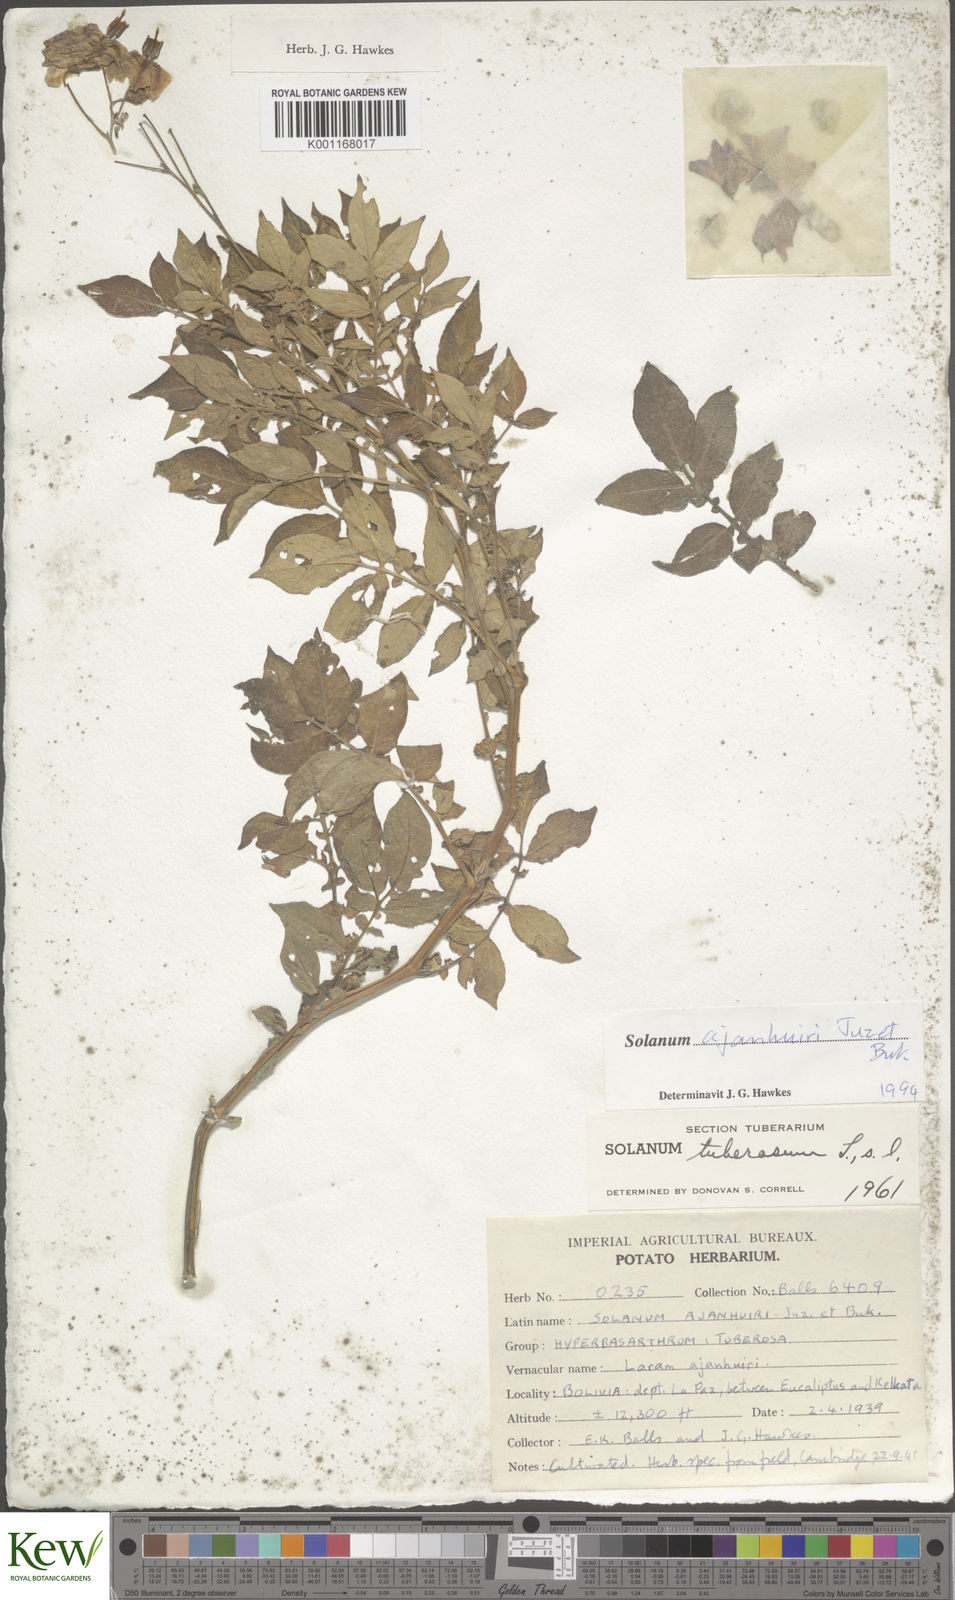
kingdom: Plantae
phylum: Tracheophyta
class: Magnoliopsida
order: Solanales
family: Solanaceae
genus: Solanum
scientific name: Solanum ajanhuiri
